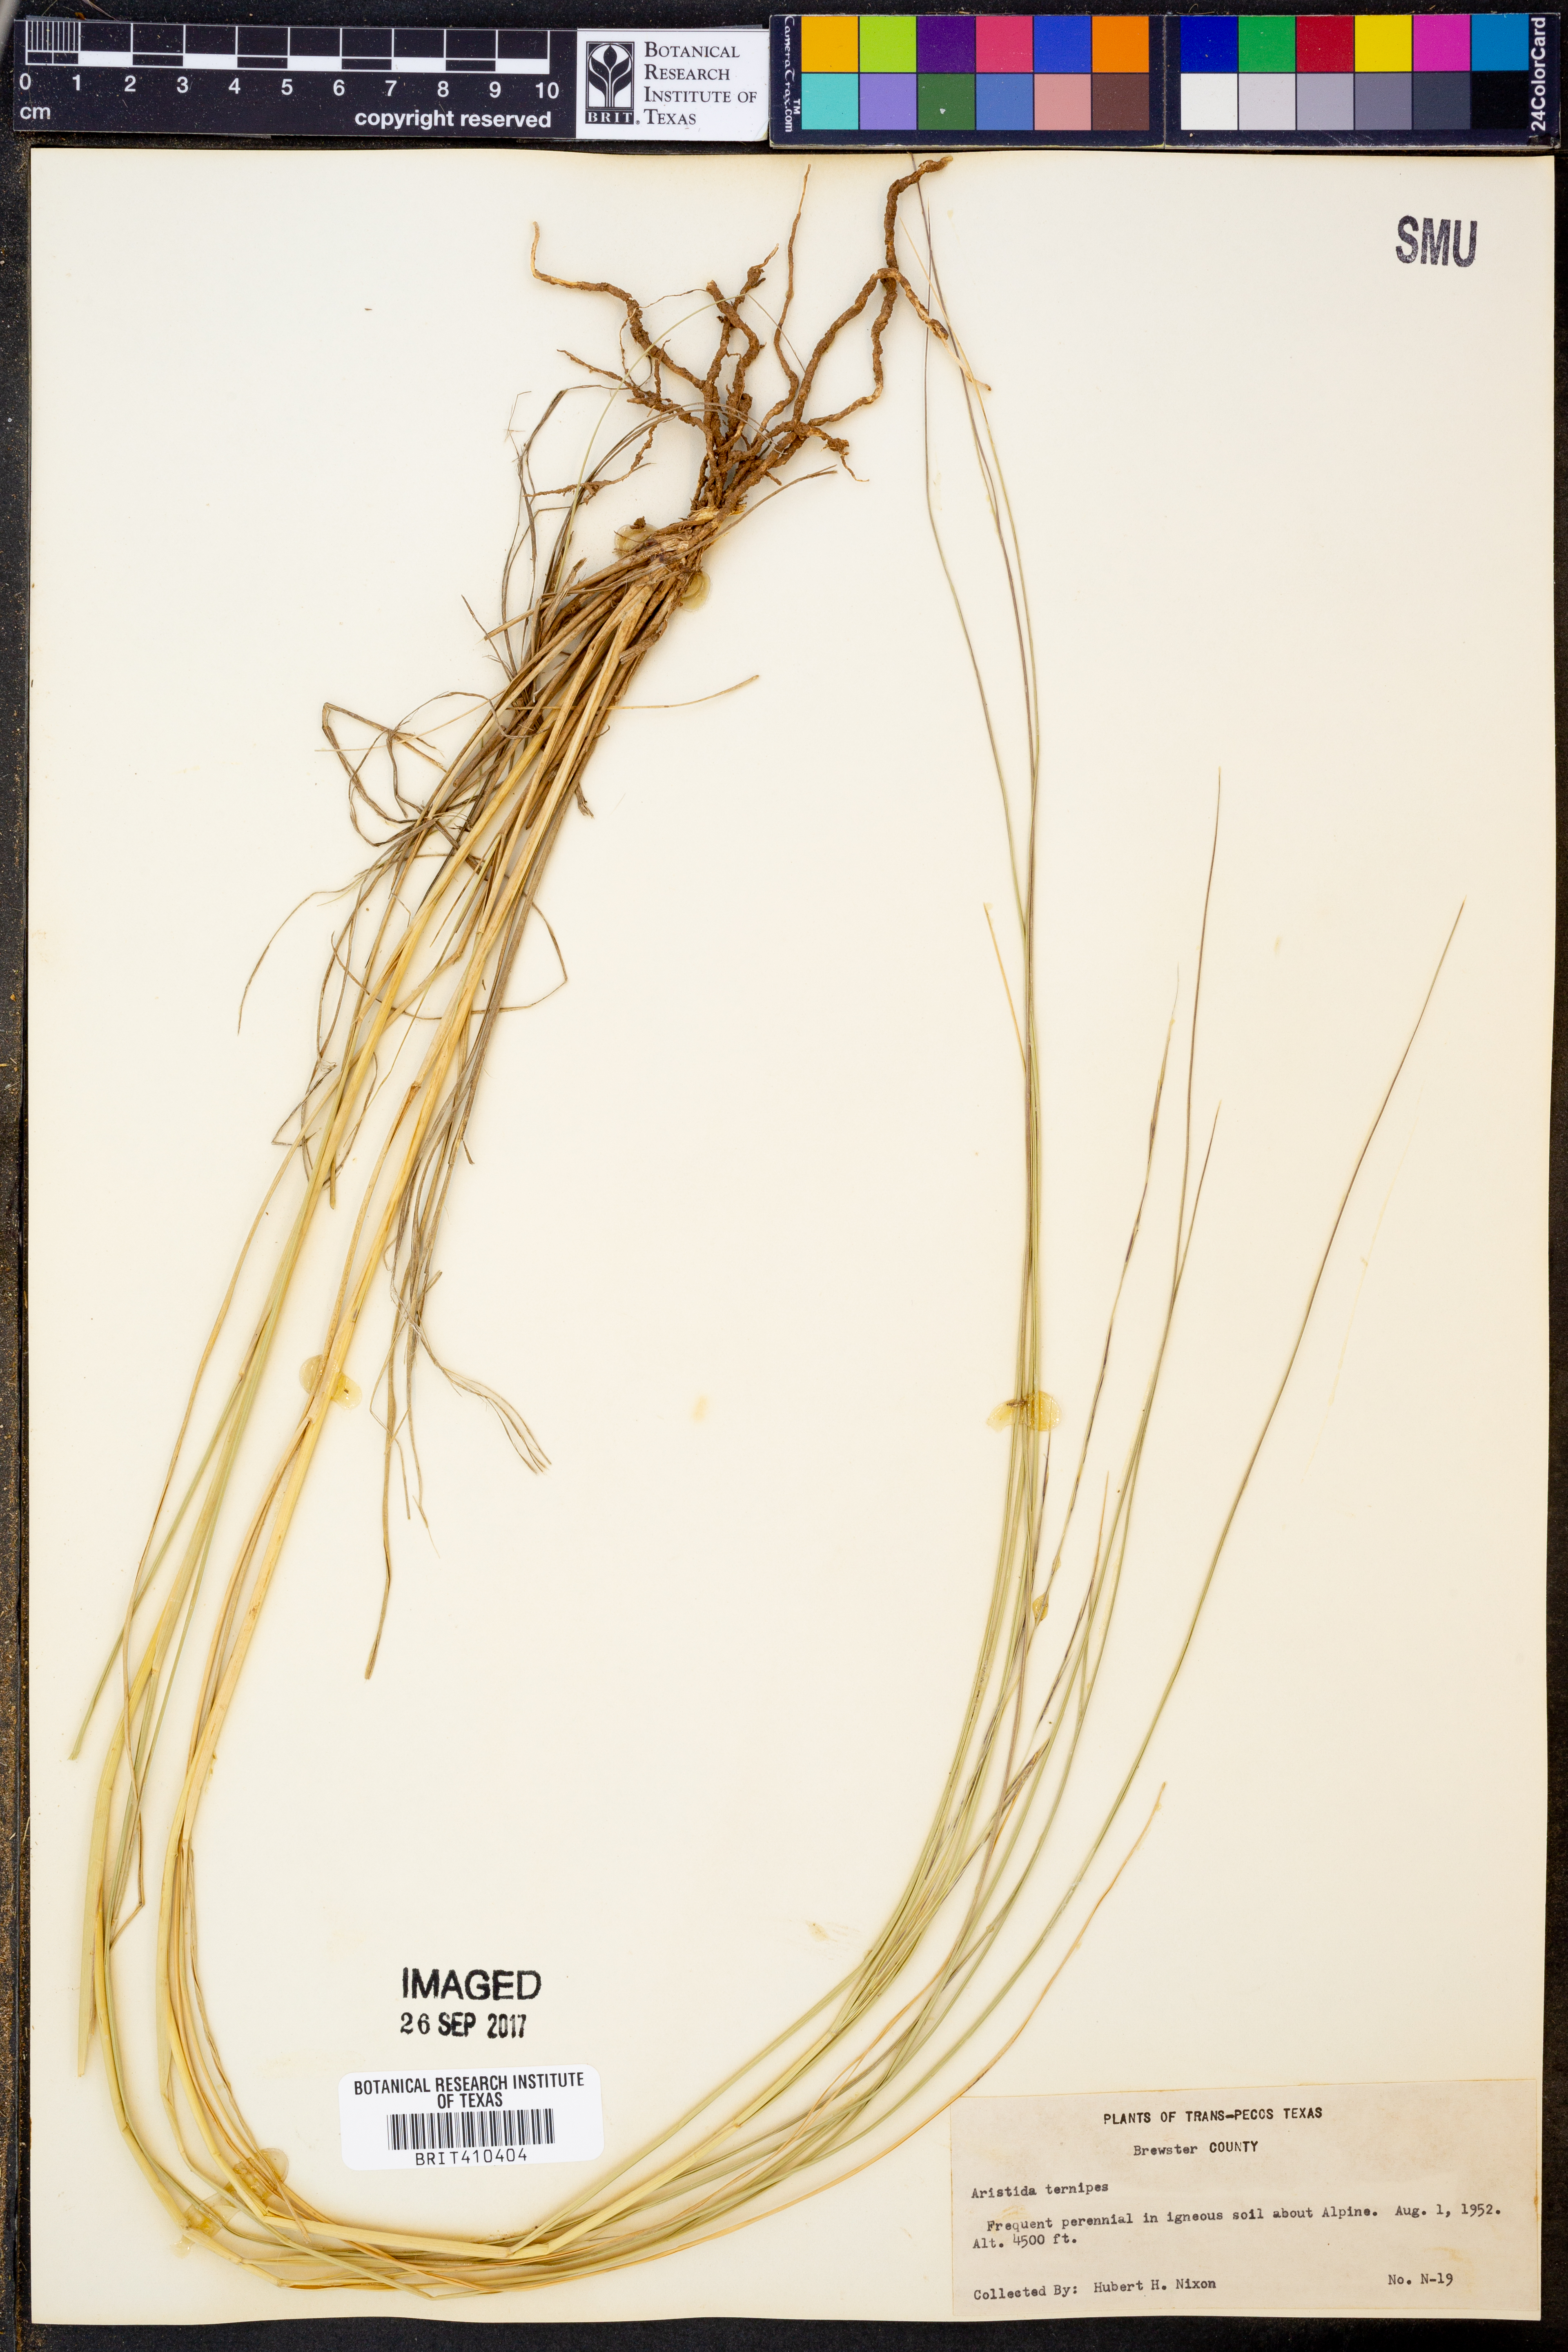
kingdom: Plantae
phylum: Tracheophyta
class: Liliopsida
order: Poales
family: Poaceae
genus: Aristida
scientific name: Aristida ternipes
